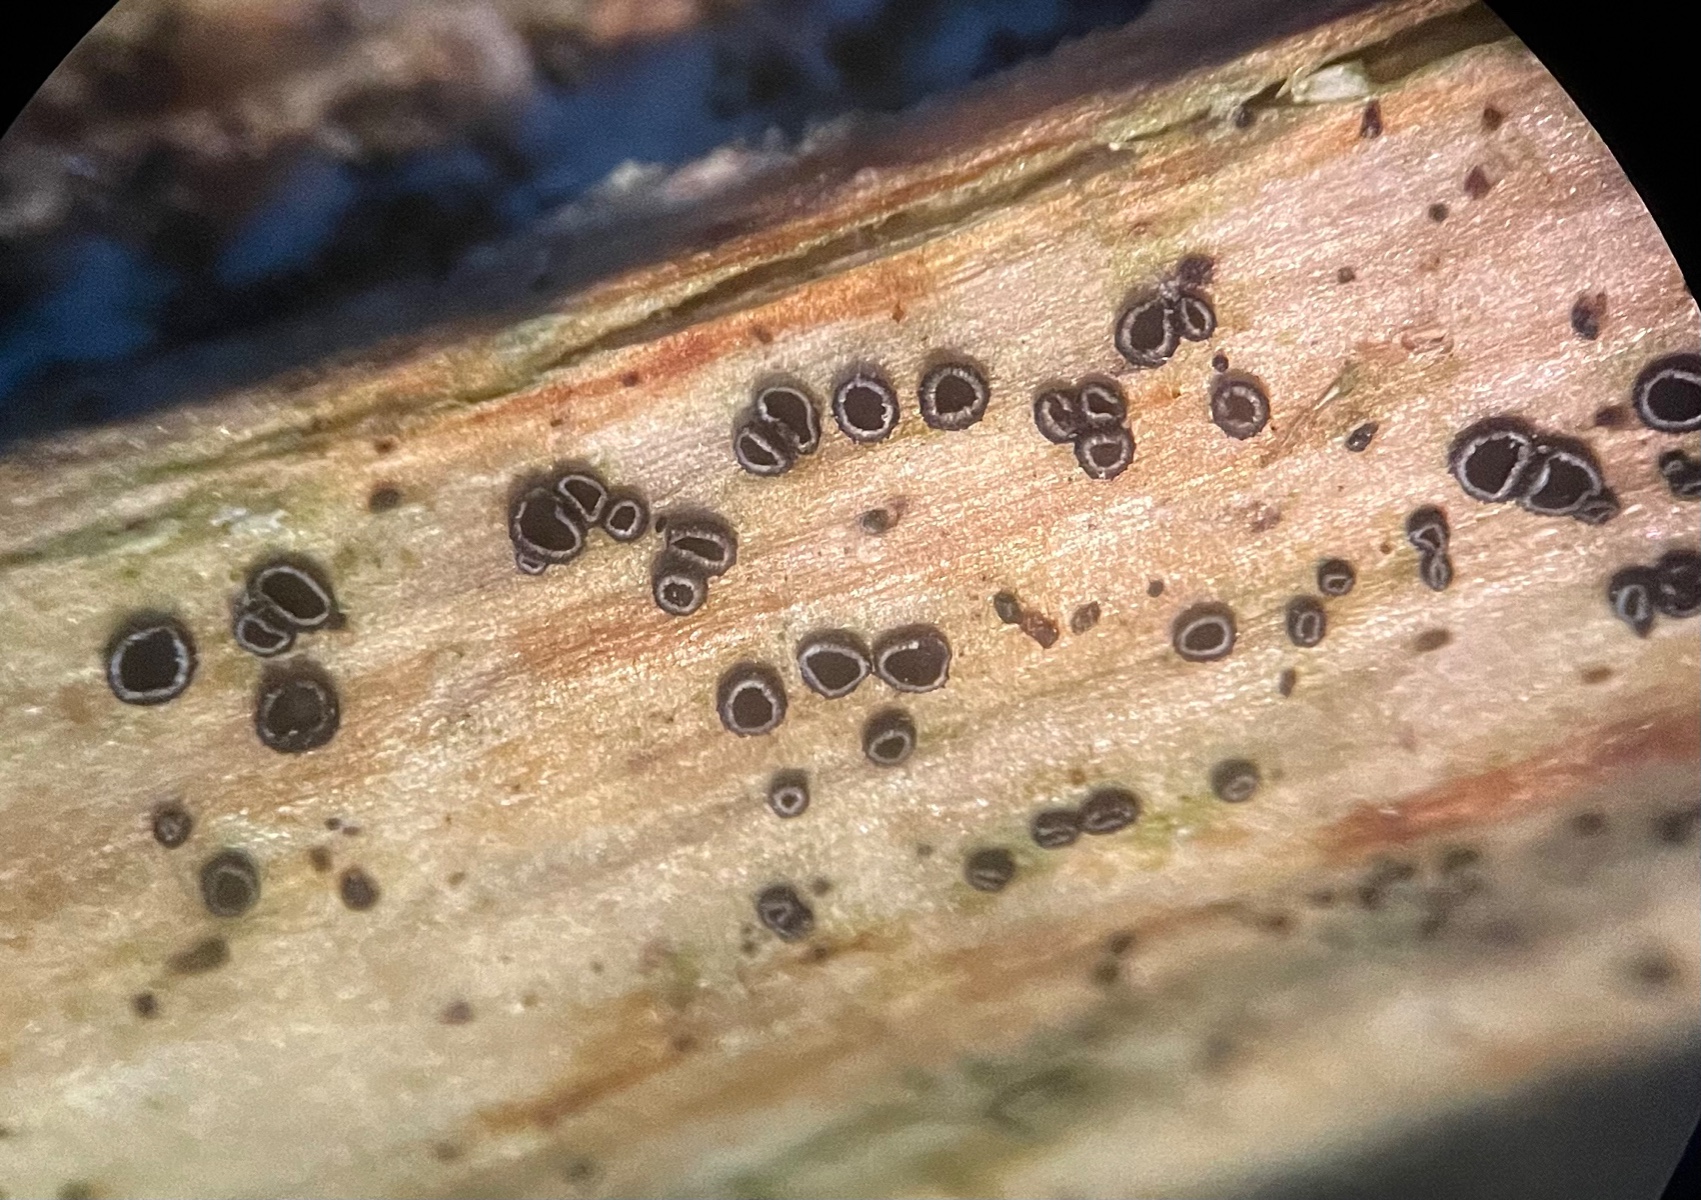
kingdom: Fungi
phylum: Ascomycota
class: Leotiomycetes
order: Helotiales
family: Ploettnerulaceae
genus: Pyrenopeziza
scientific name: Pyrenopeziza urticicola
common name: nælde-kerneskive
